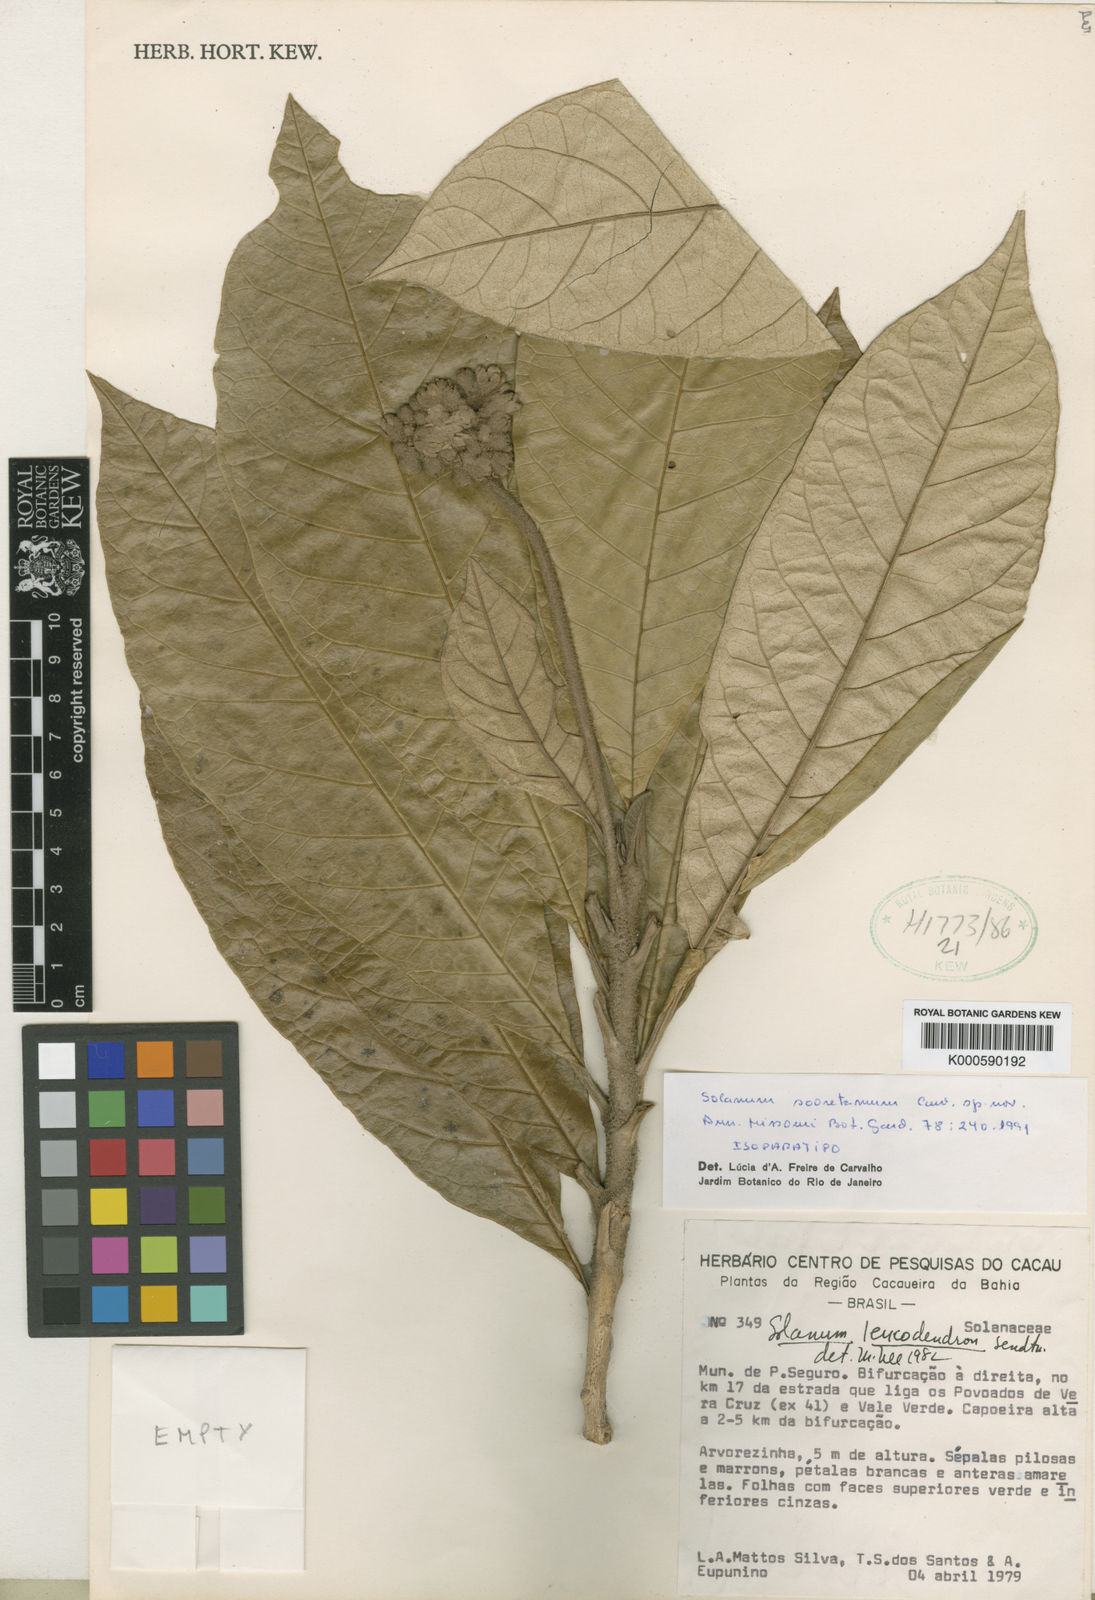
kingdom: Plantae
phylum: Tracheophyta
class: Magnoliopsida
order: Solanales
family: Solanaceae
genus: Solanum
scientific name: Solanum sooretamum
